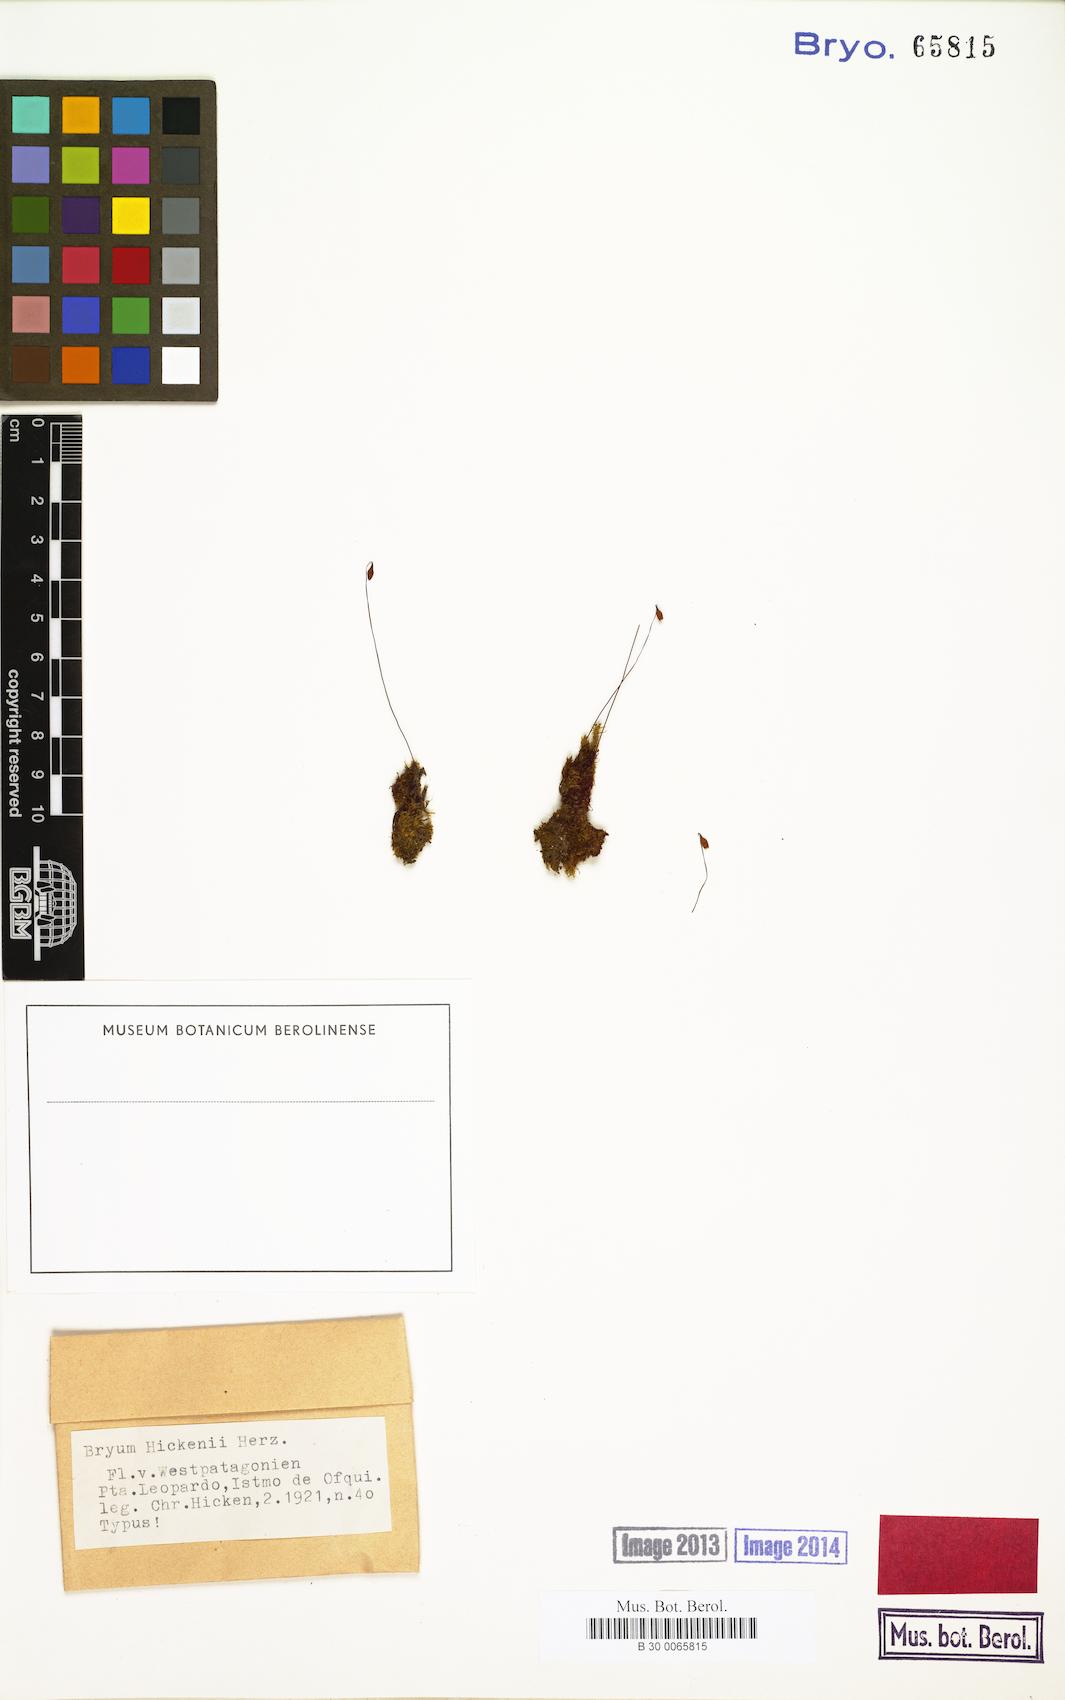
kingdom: Plantae
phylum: Bryophyta
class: Bryopsida
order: Bryales
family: Bryaceae
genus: Ptychostomum
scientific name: Ptychostomum pseudotriquetrum
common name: Long-leaved thread moss
